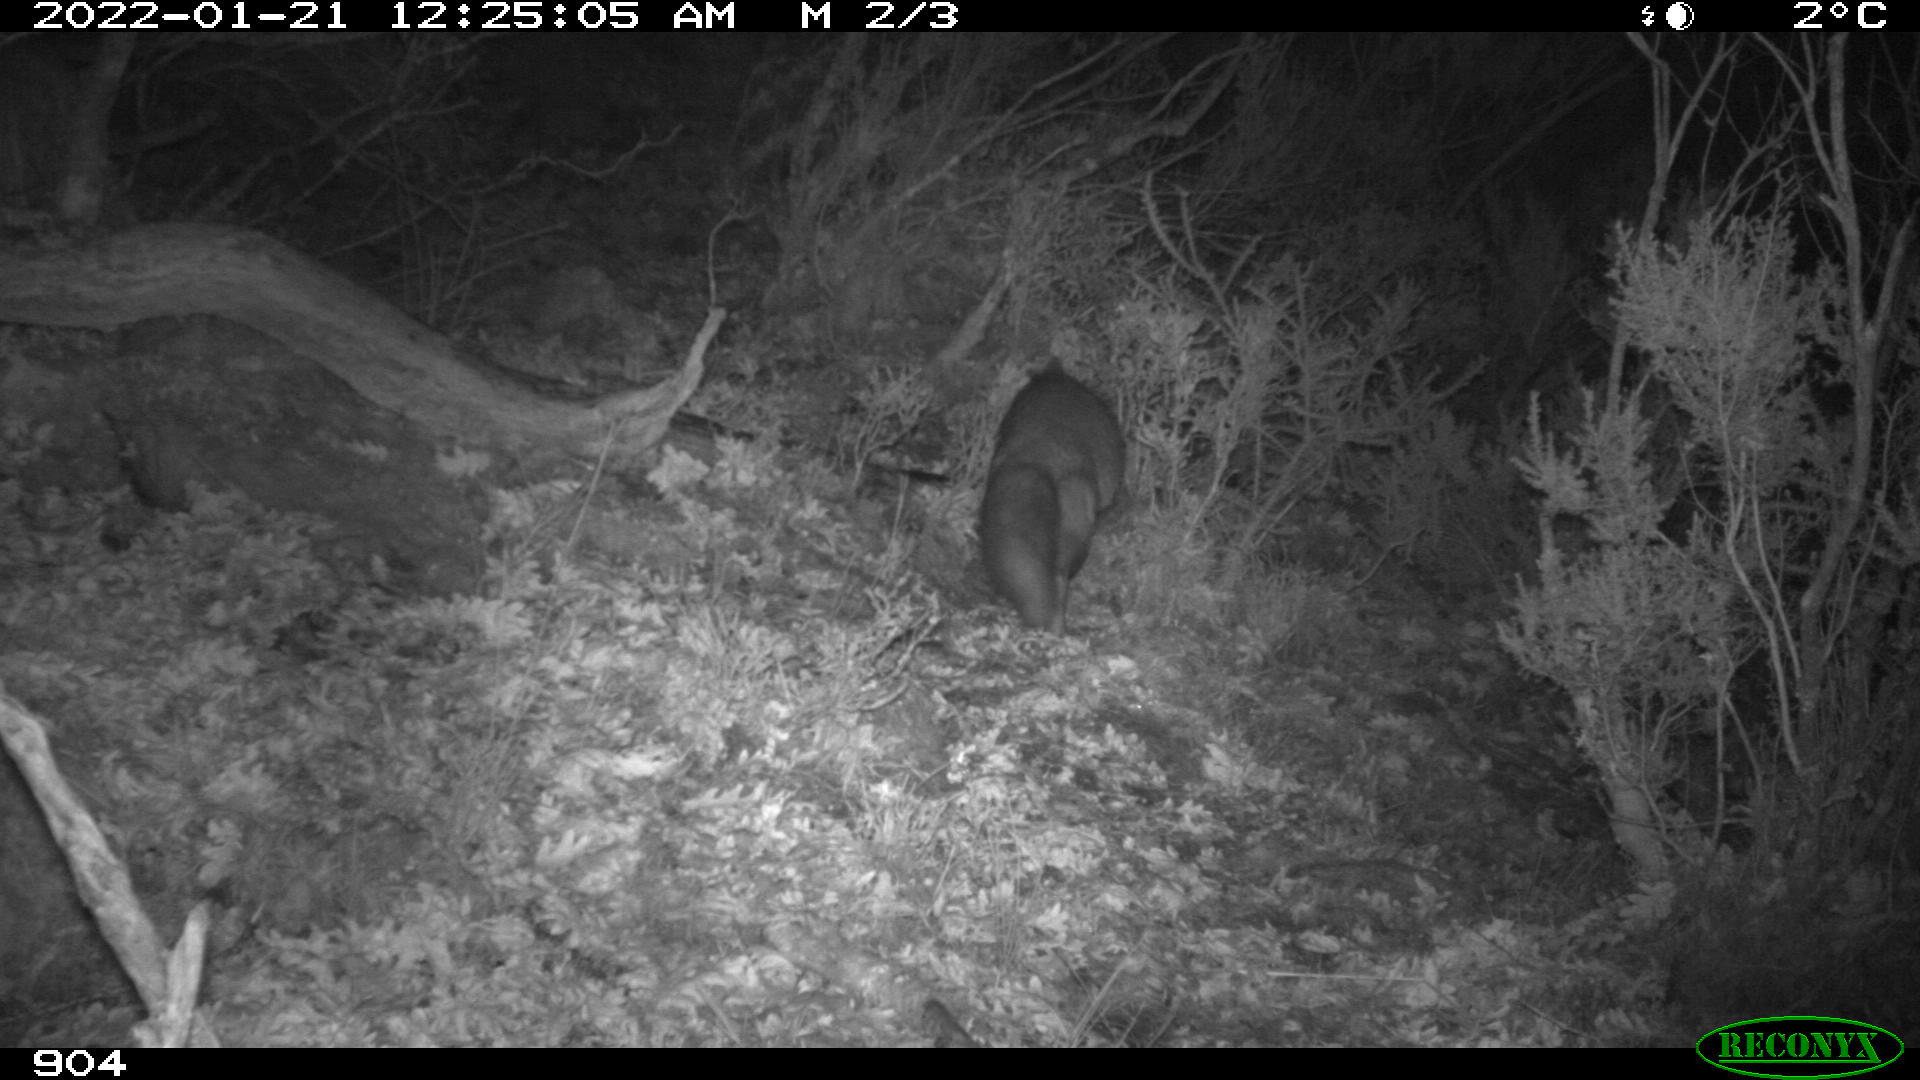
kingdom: Animalia
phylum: Chordata
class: Mammalia
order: Carnivora
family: Canidae
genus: Vulpes
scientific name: Vulpes vulpes
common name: Red fox
